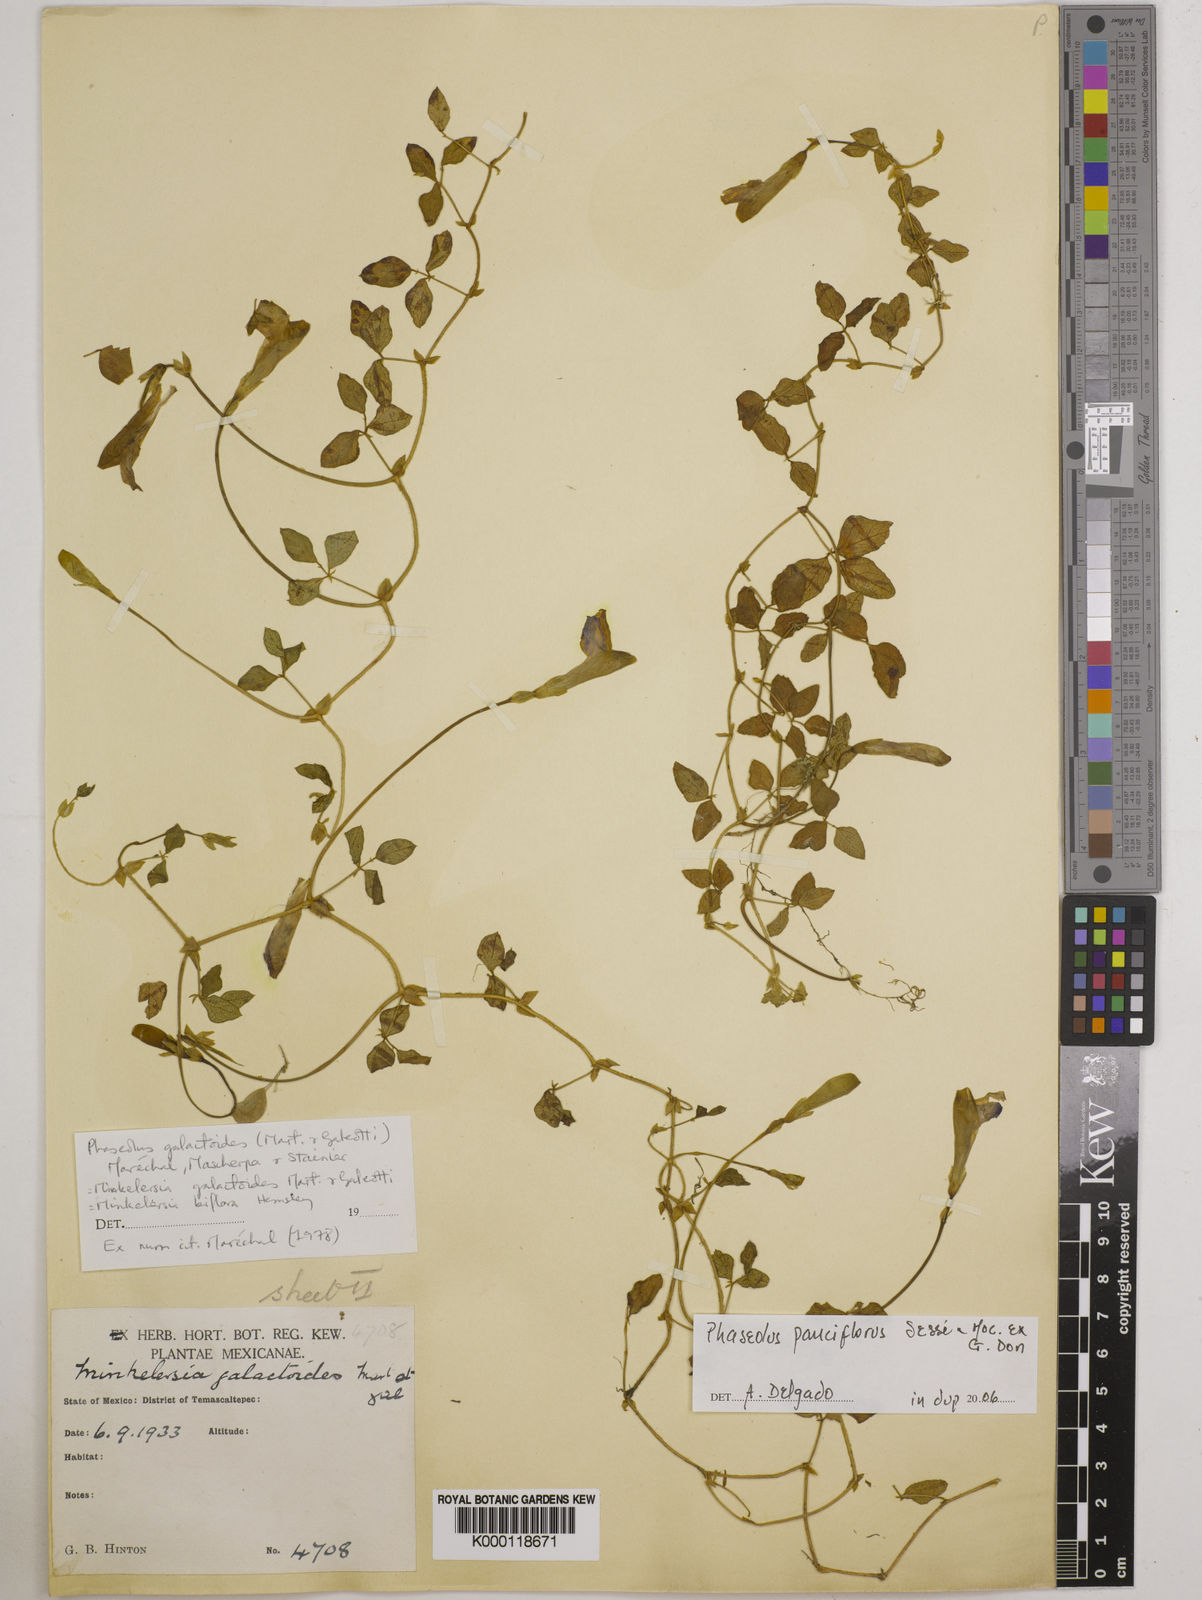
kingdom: Plantae
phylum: Tracheophyta
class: Magnoliopsida
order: Fabales
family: Fabaceae
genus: Phaseolus
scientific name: Phaseolus
